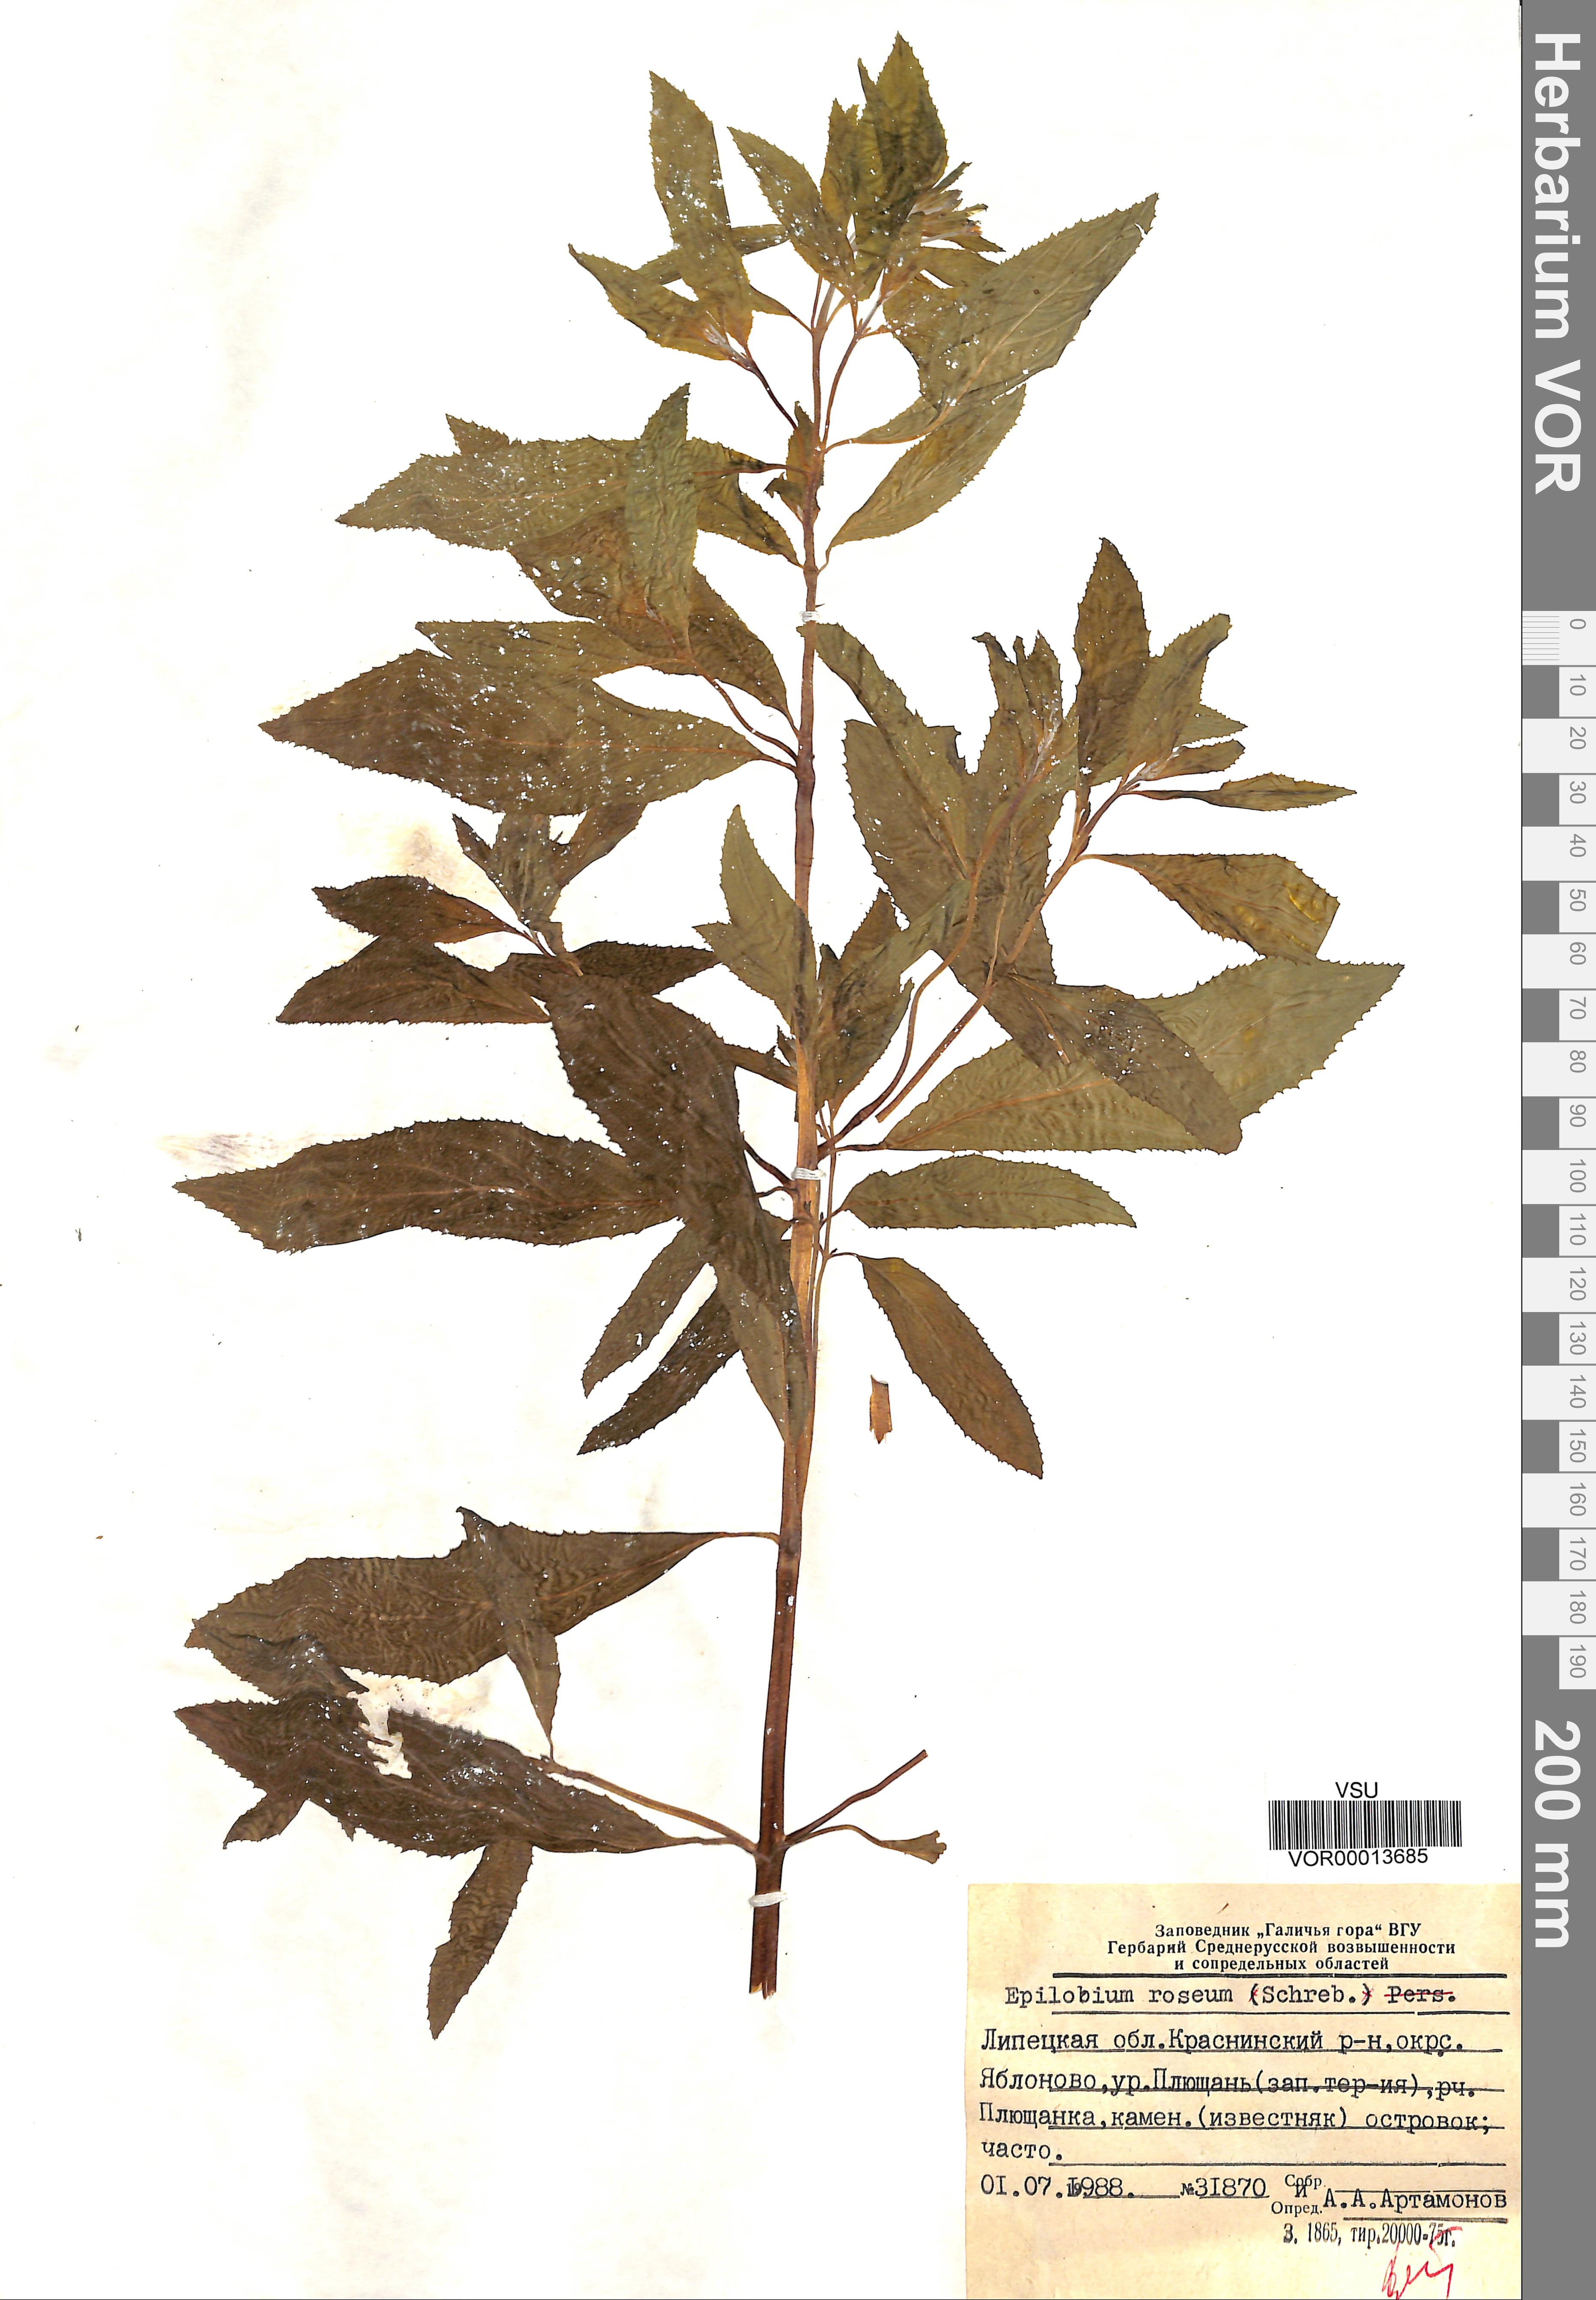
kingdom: Plantae
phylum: Tracheophyta
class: Magnoliopsida
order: Myrtales
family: Onagraceae
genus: Epilobium
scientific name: Epilobium roseum
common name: Pale willowherb
